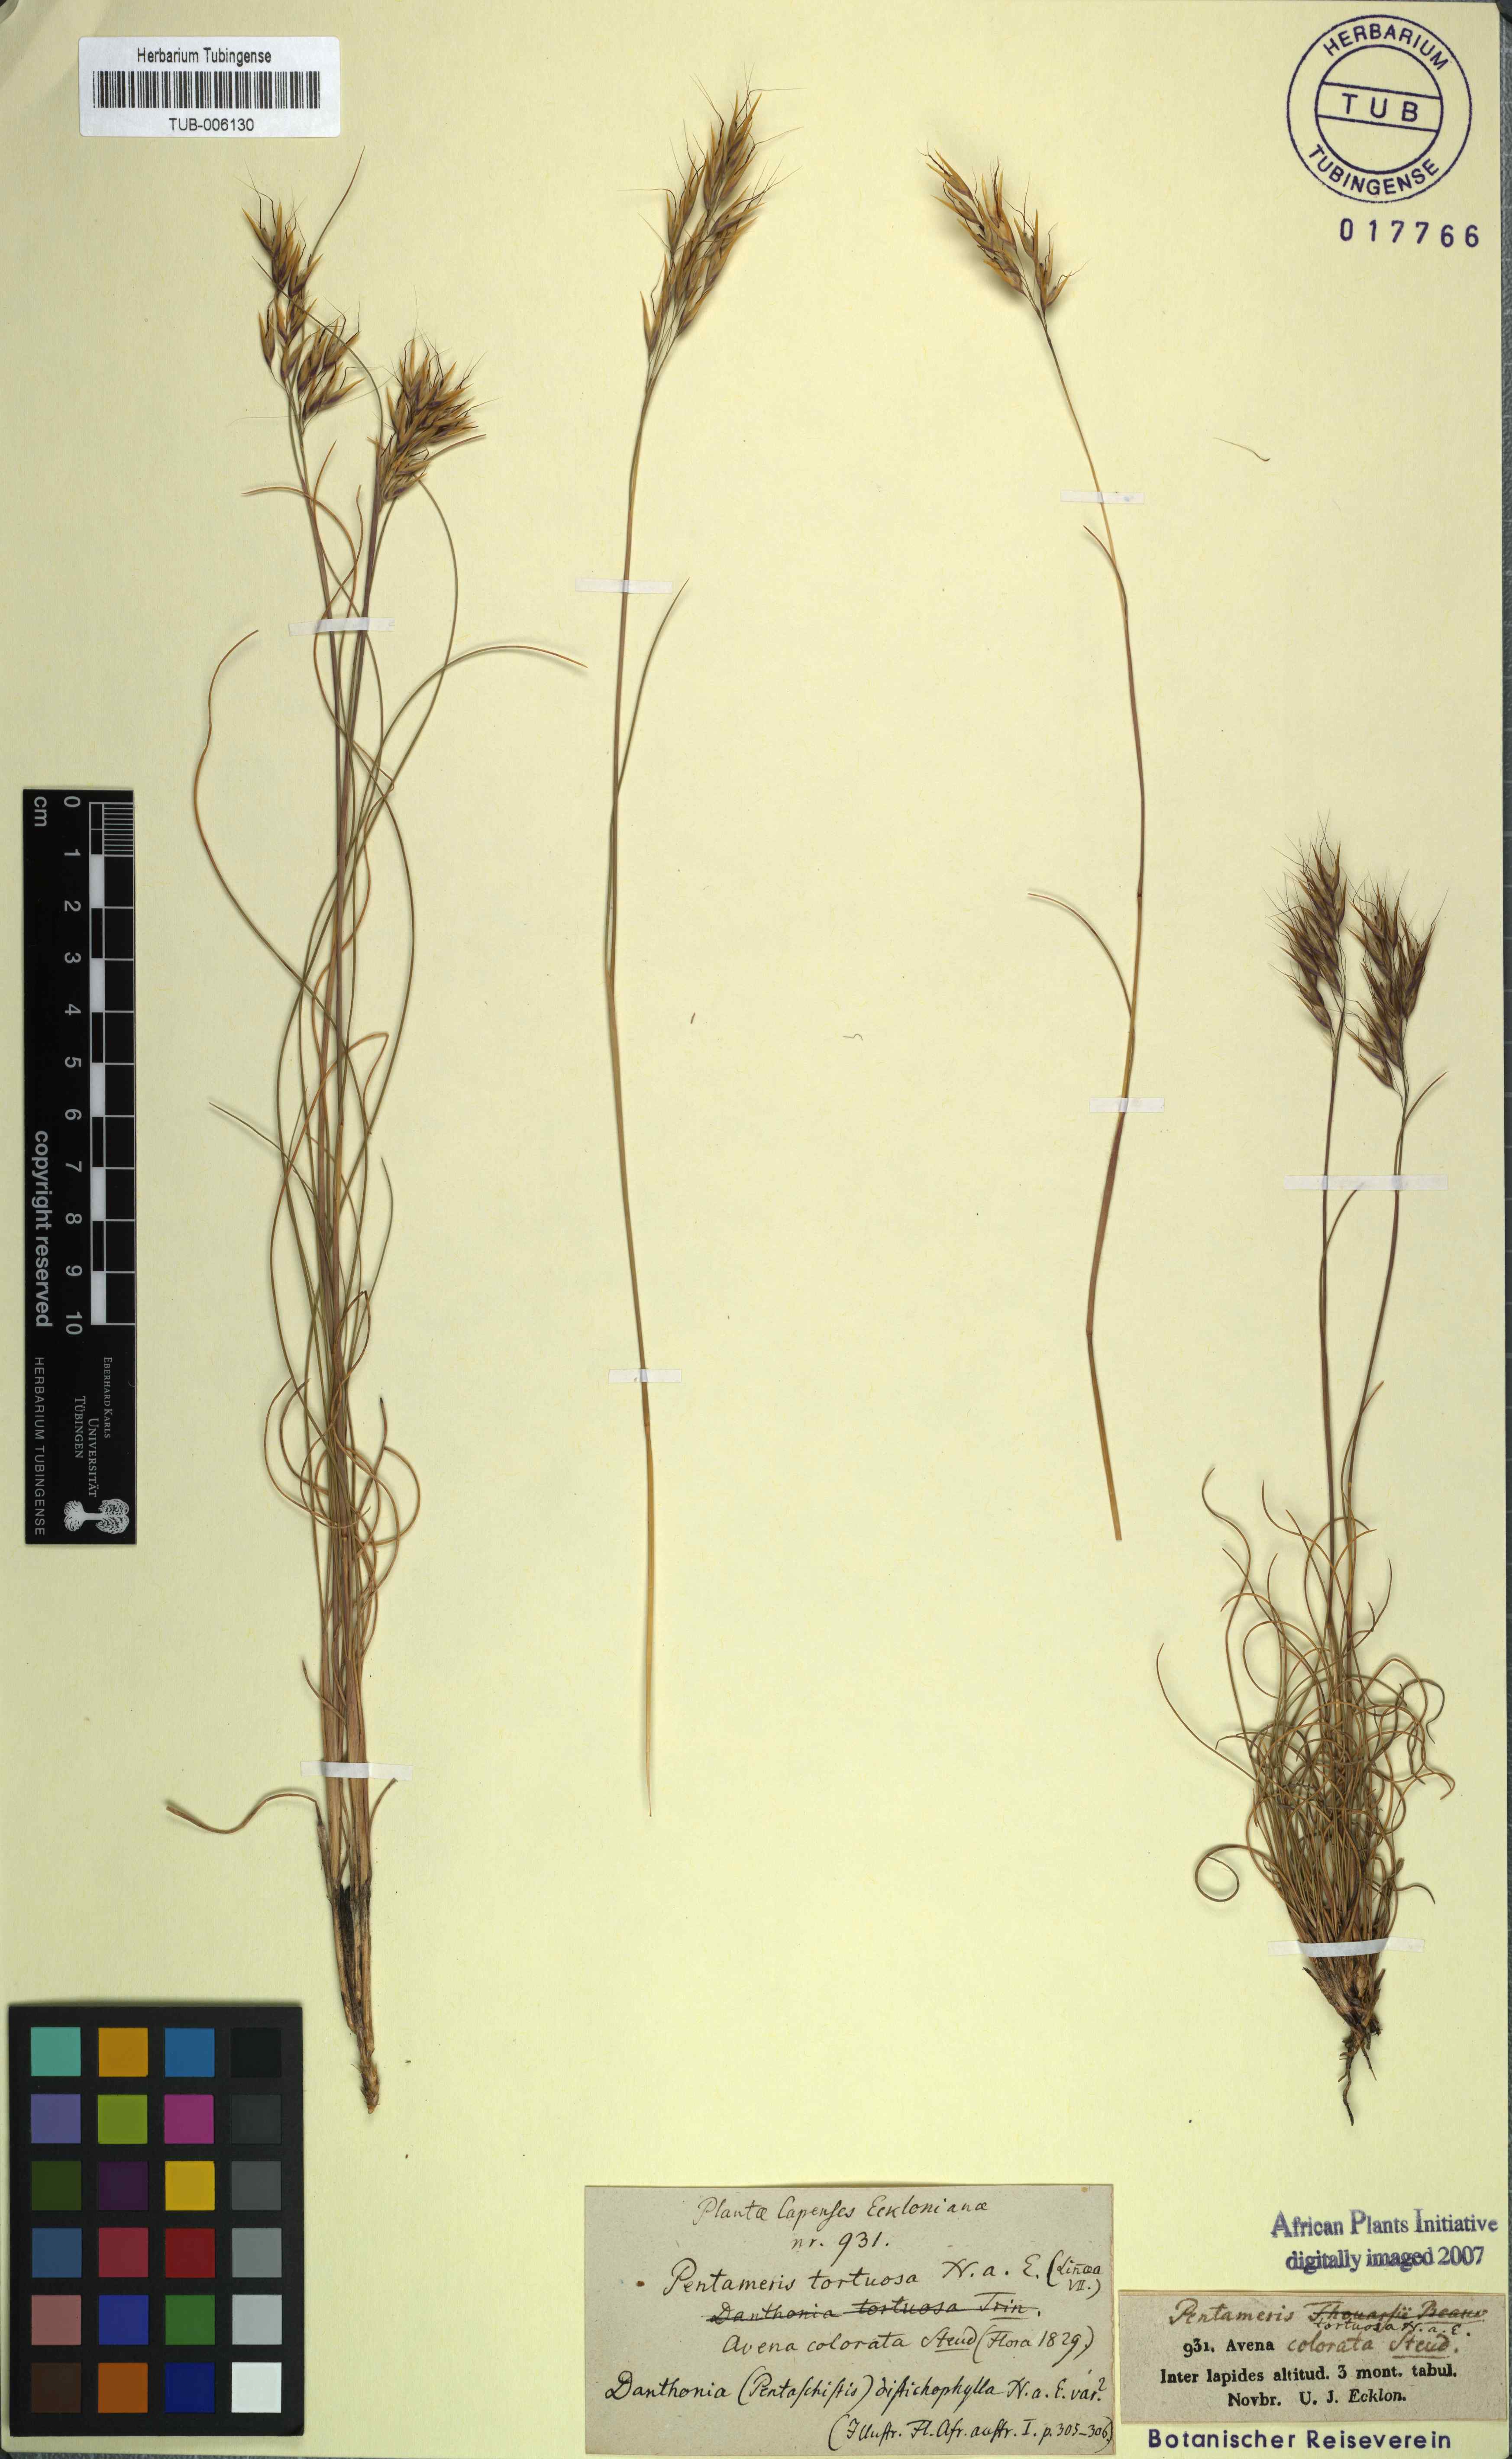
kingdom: Plantae
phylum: Tracheophyta
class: Liliopsida
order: Poales
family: Poaceae
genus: Pentameris
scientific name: Pentameris tortuosa
